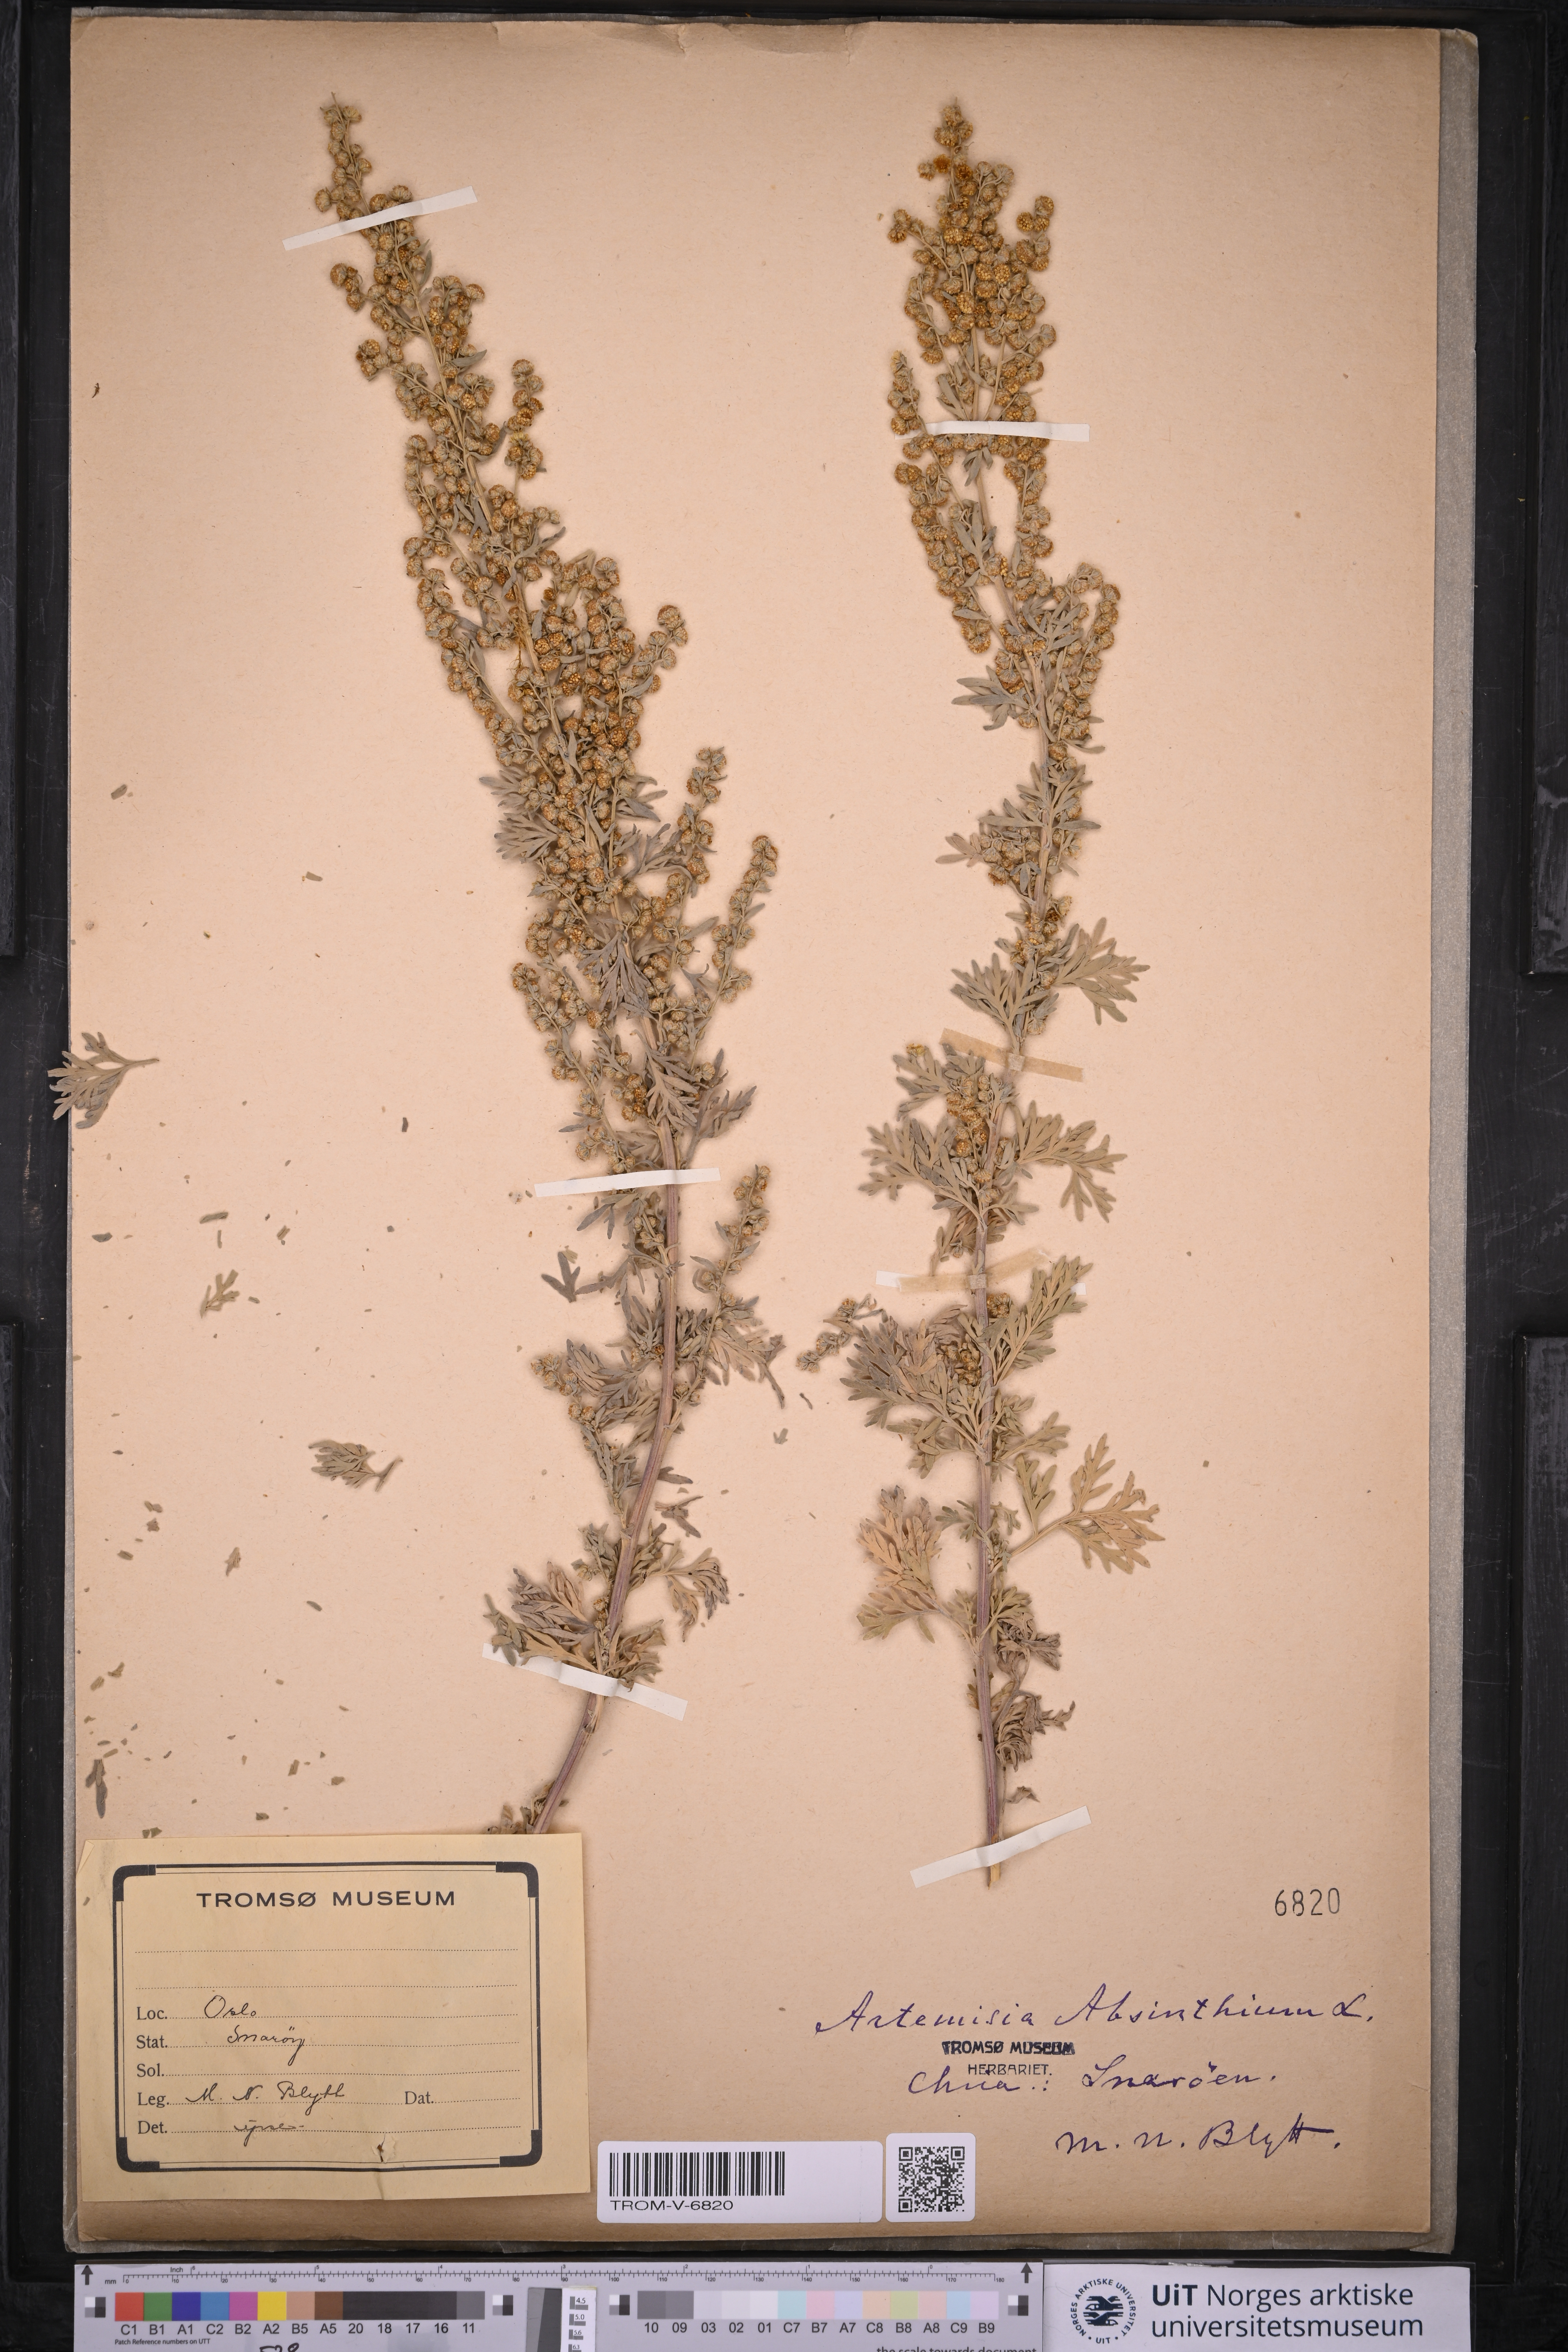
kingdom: Plantae
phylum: Tracheophyta
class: Magnoliopsida
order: Asterales
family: Asteraceae
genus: Artemisia
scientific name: Artemisia absinthium
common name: Wormwood
